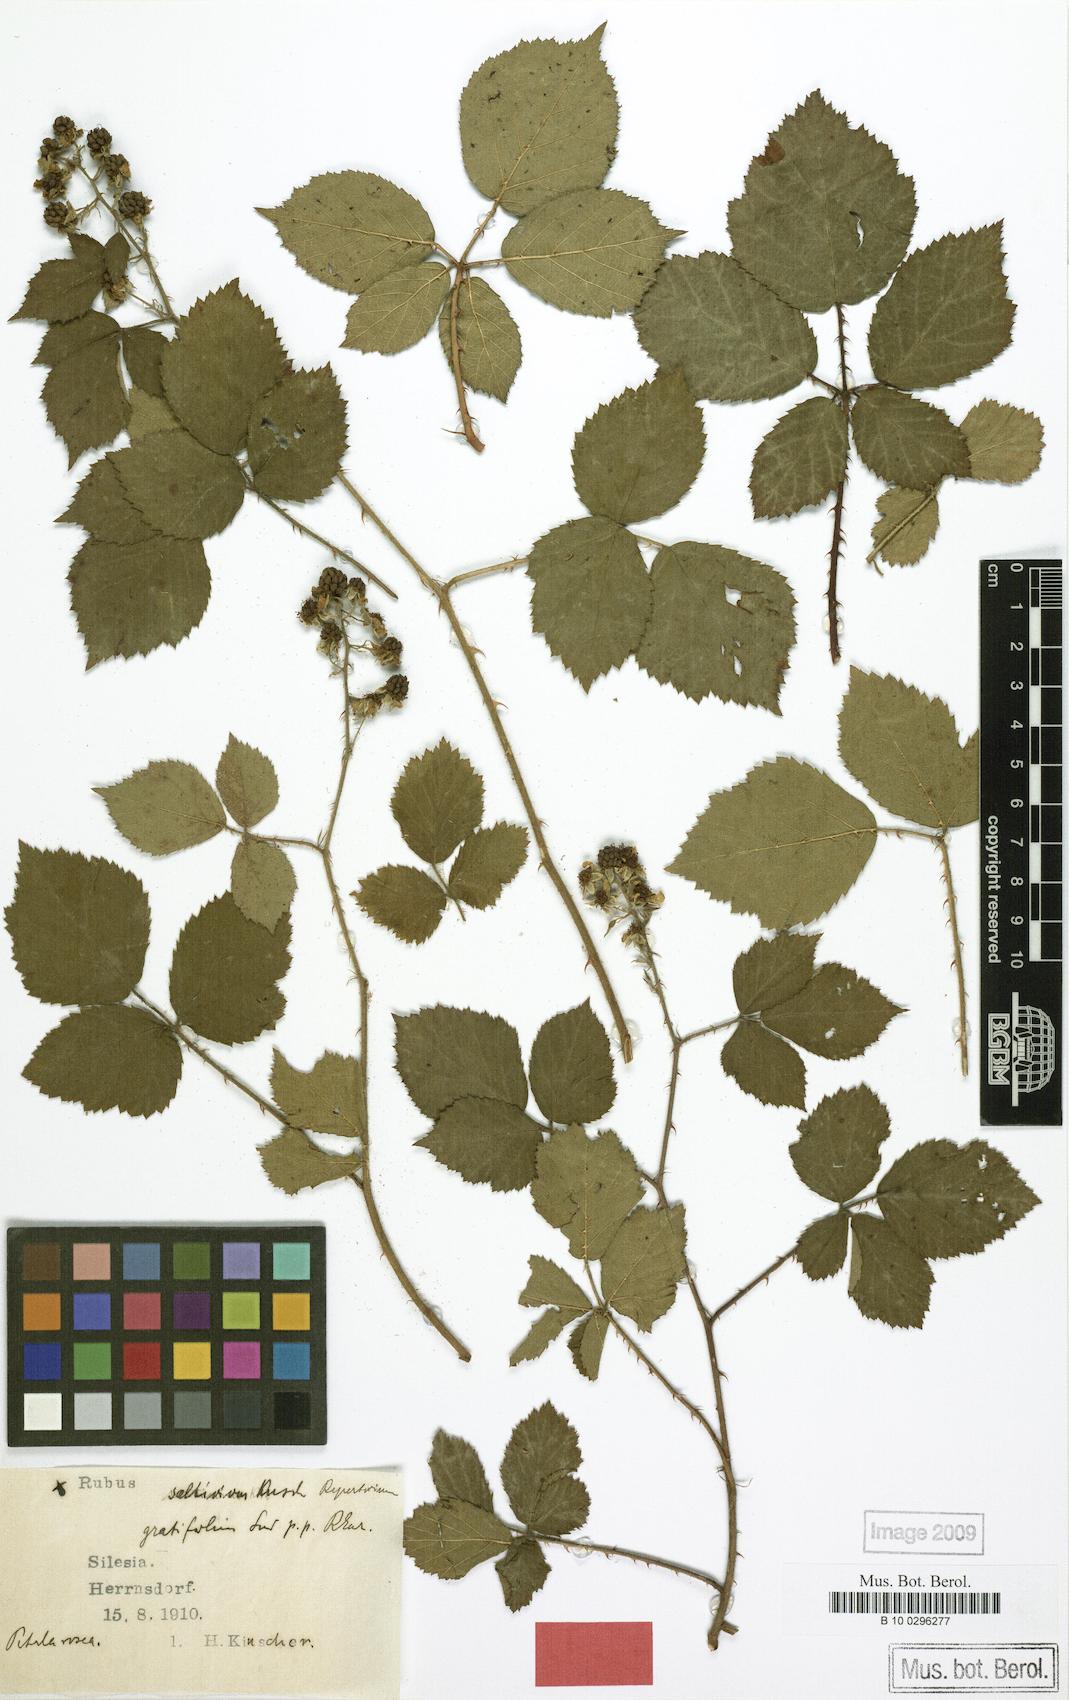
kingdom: Plantae
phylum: Tracheophyta
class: Magnoliopsida
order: Rosales
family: Rosaceae
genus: Rubus
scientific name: Rubus saltivivus
